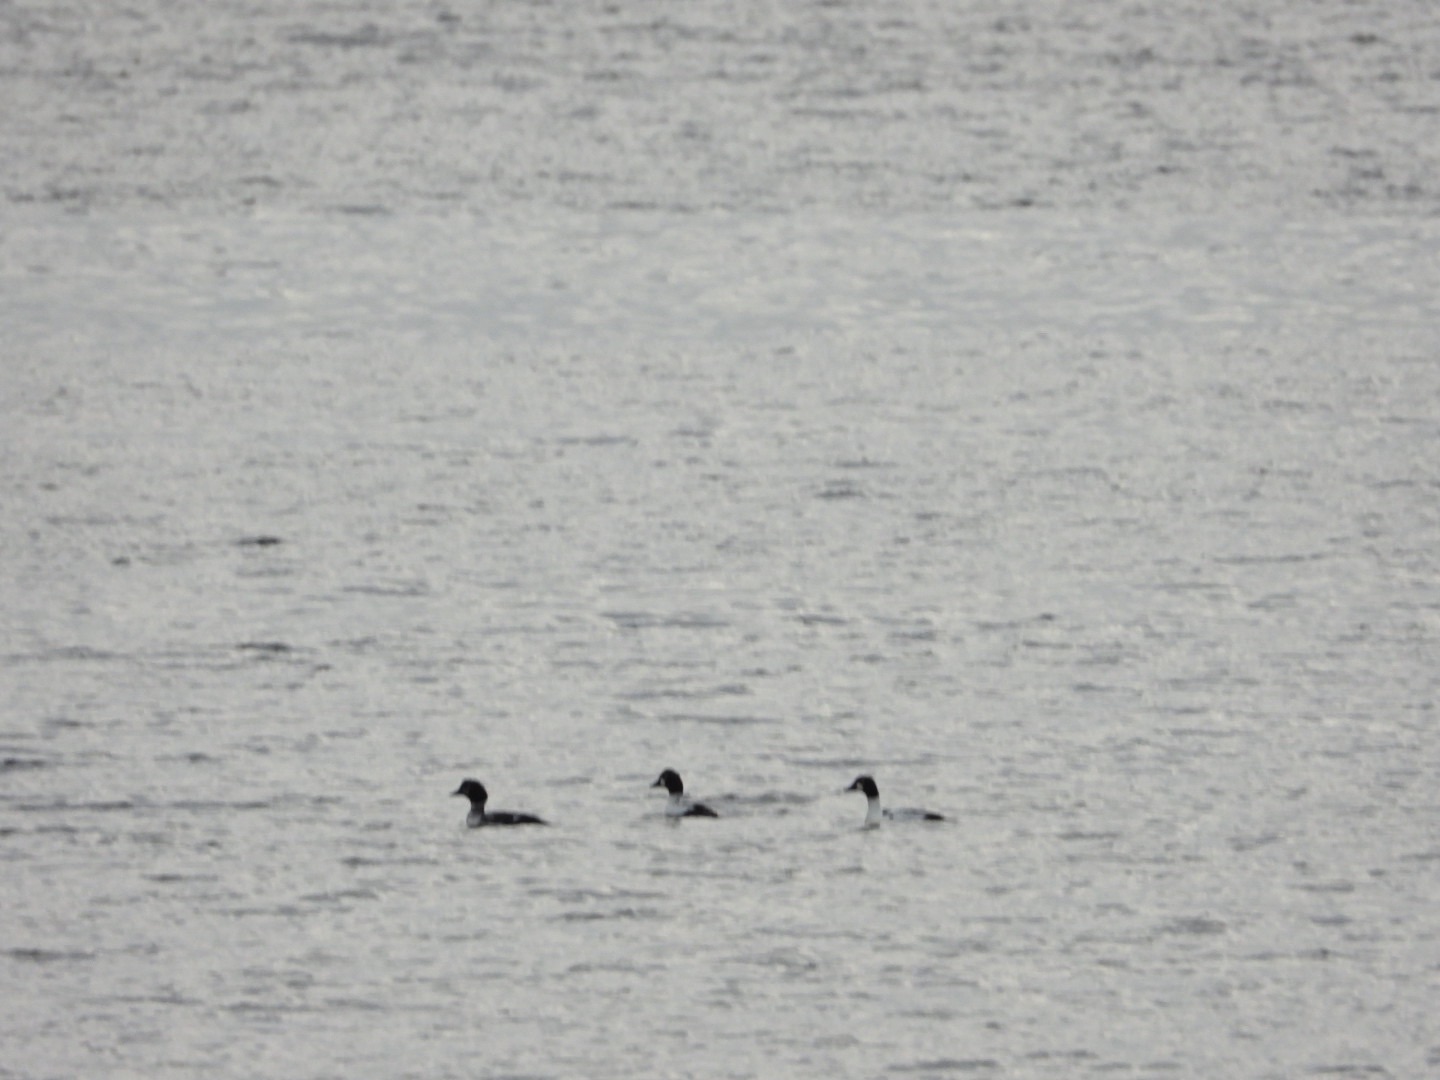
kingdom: Animalia
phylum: Chordata
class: Aves
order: Anseriformes
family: Anatidae
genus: Bucephala
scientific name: Bucephala clangula
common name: Hvinand
